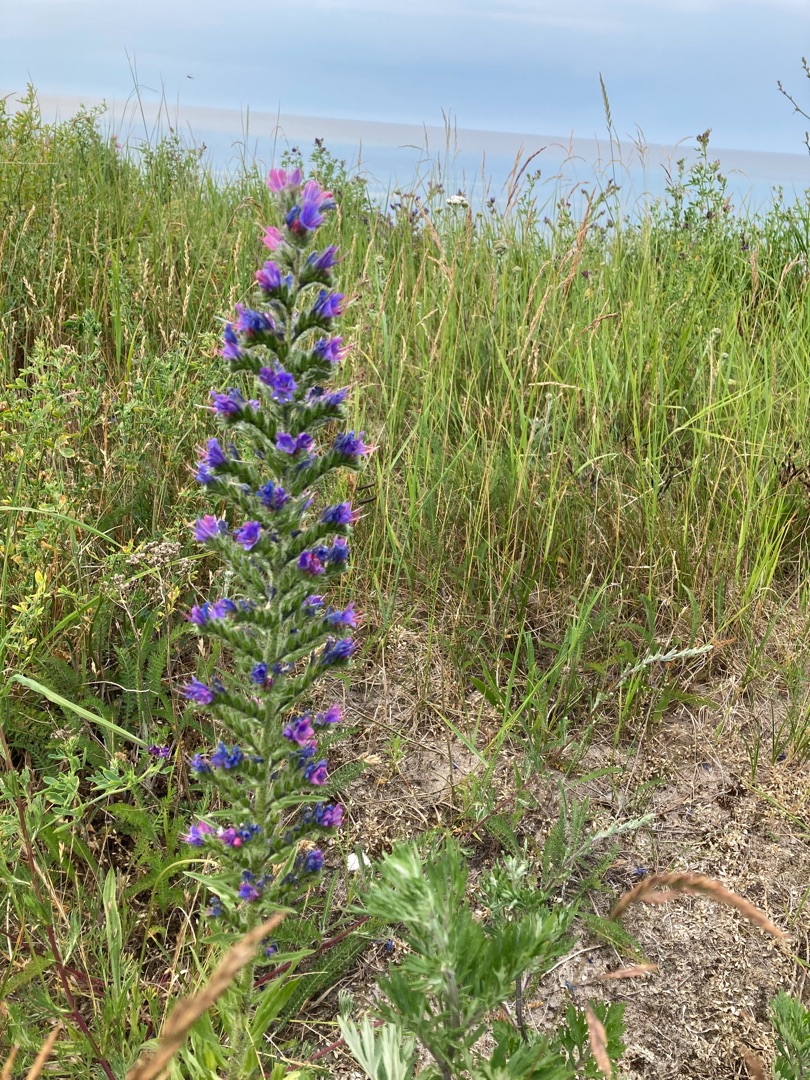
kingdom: Plantae
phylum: Tracheophyta
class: Magnoliopsida
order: Boraginales
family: Boraginaceae
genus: Echium
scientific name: Echium vulgare
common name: Slangehoved
